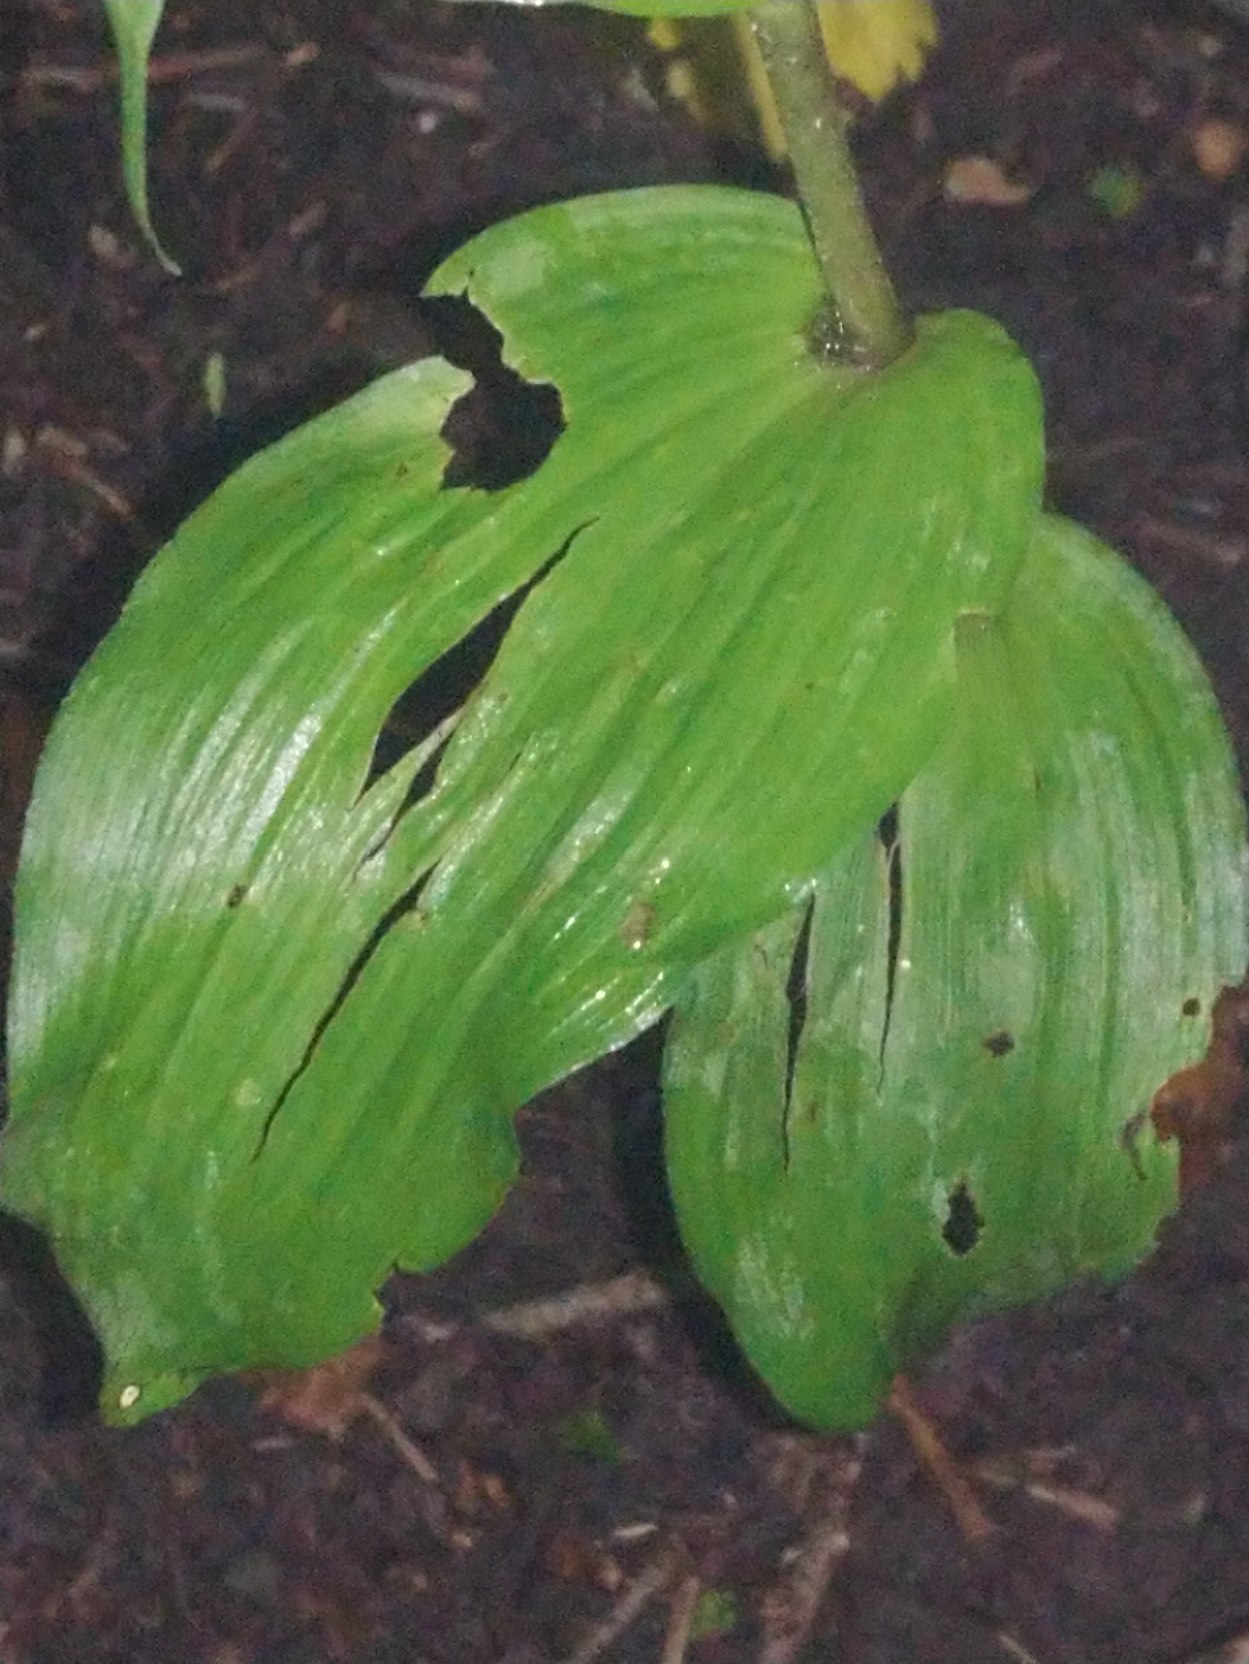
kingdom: Plantae
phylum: Tracheophyta
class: Liliopsida
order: Asparagales
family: Orchidaceae
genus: Epipactis
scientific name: Epipactis helleborine
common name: Skov-hullæbe
